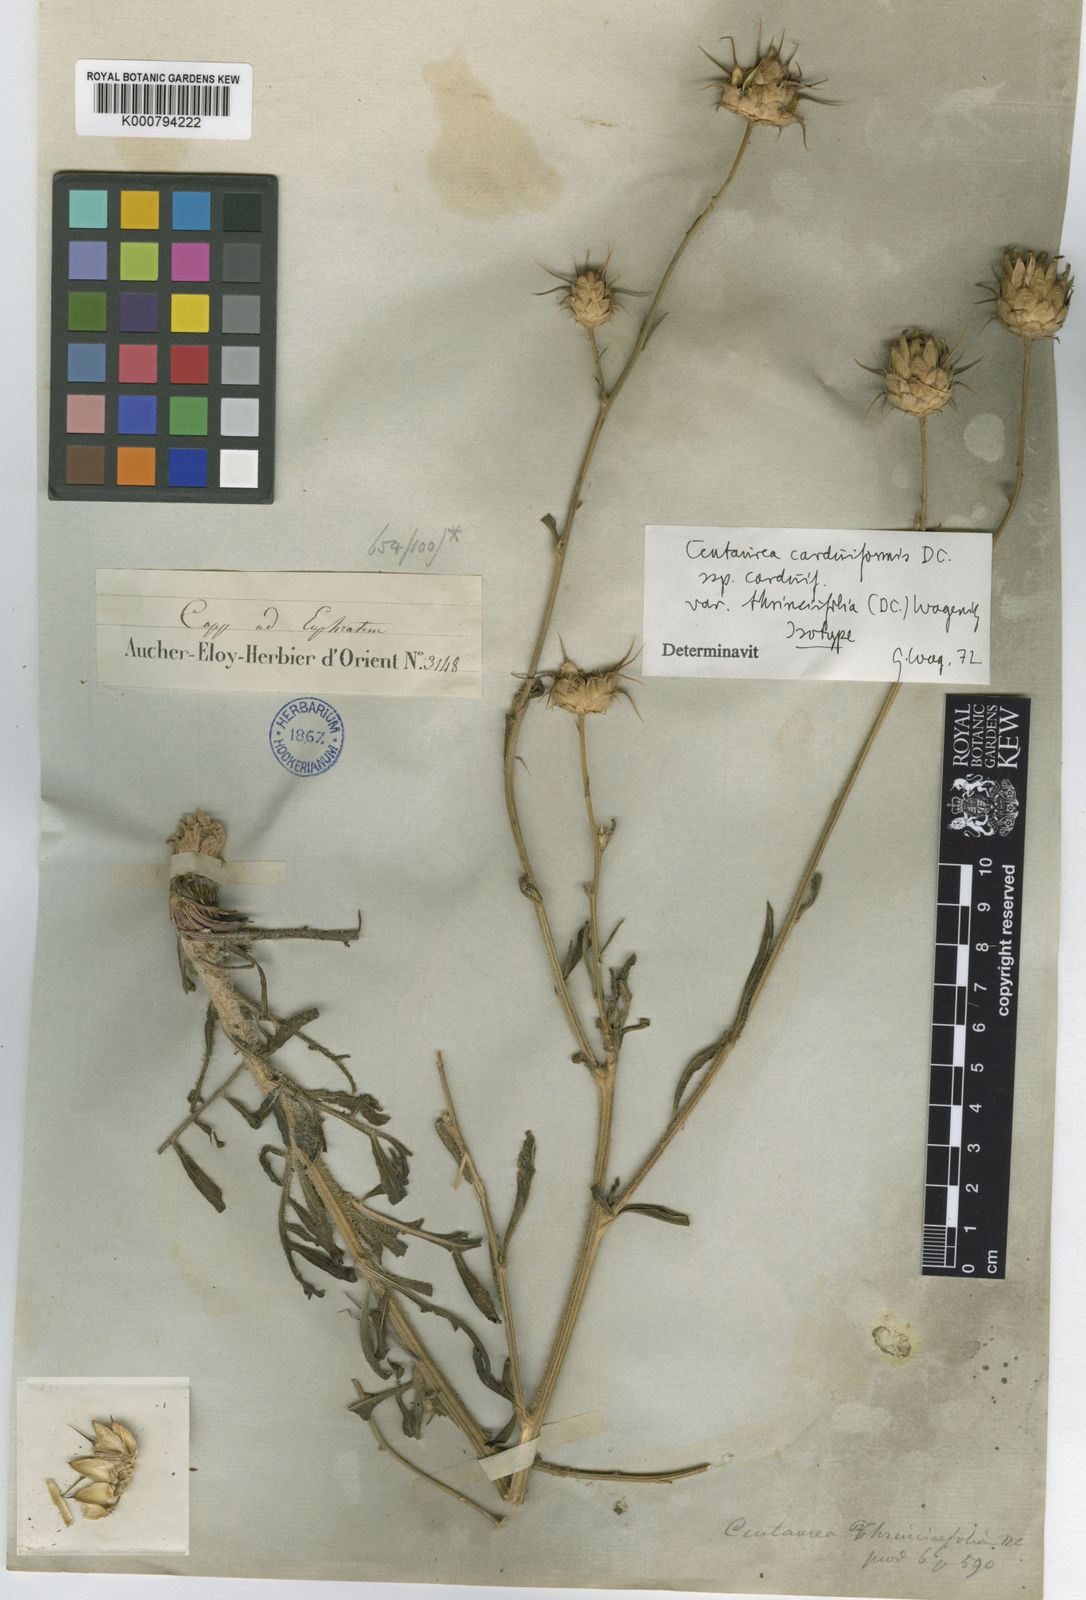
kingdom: Plantae
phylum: Tracheophyta
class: Magnoliopsida
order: Asterales
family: Asteraceae
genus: Centaurea
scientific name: Centaurea carduiformis
